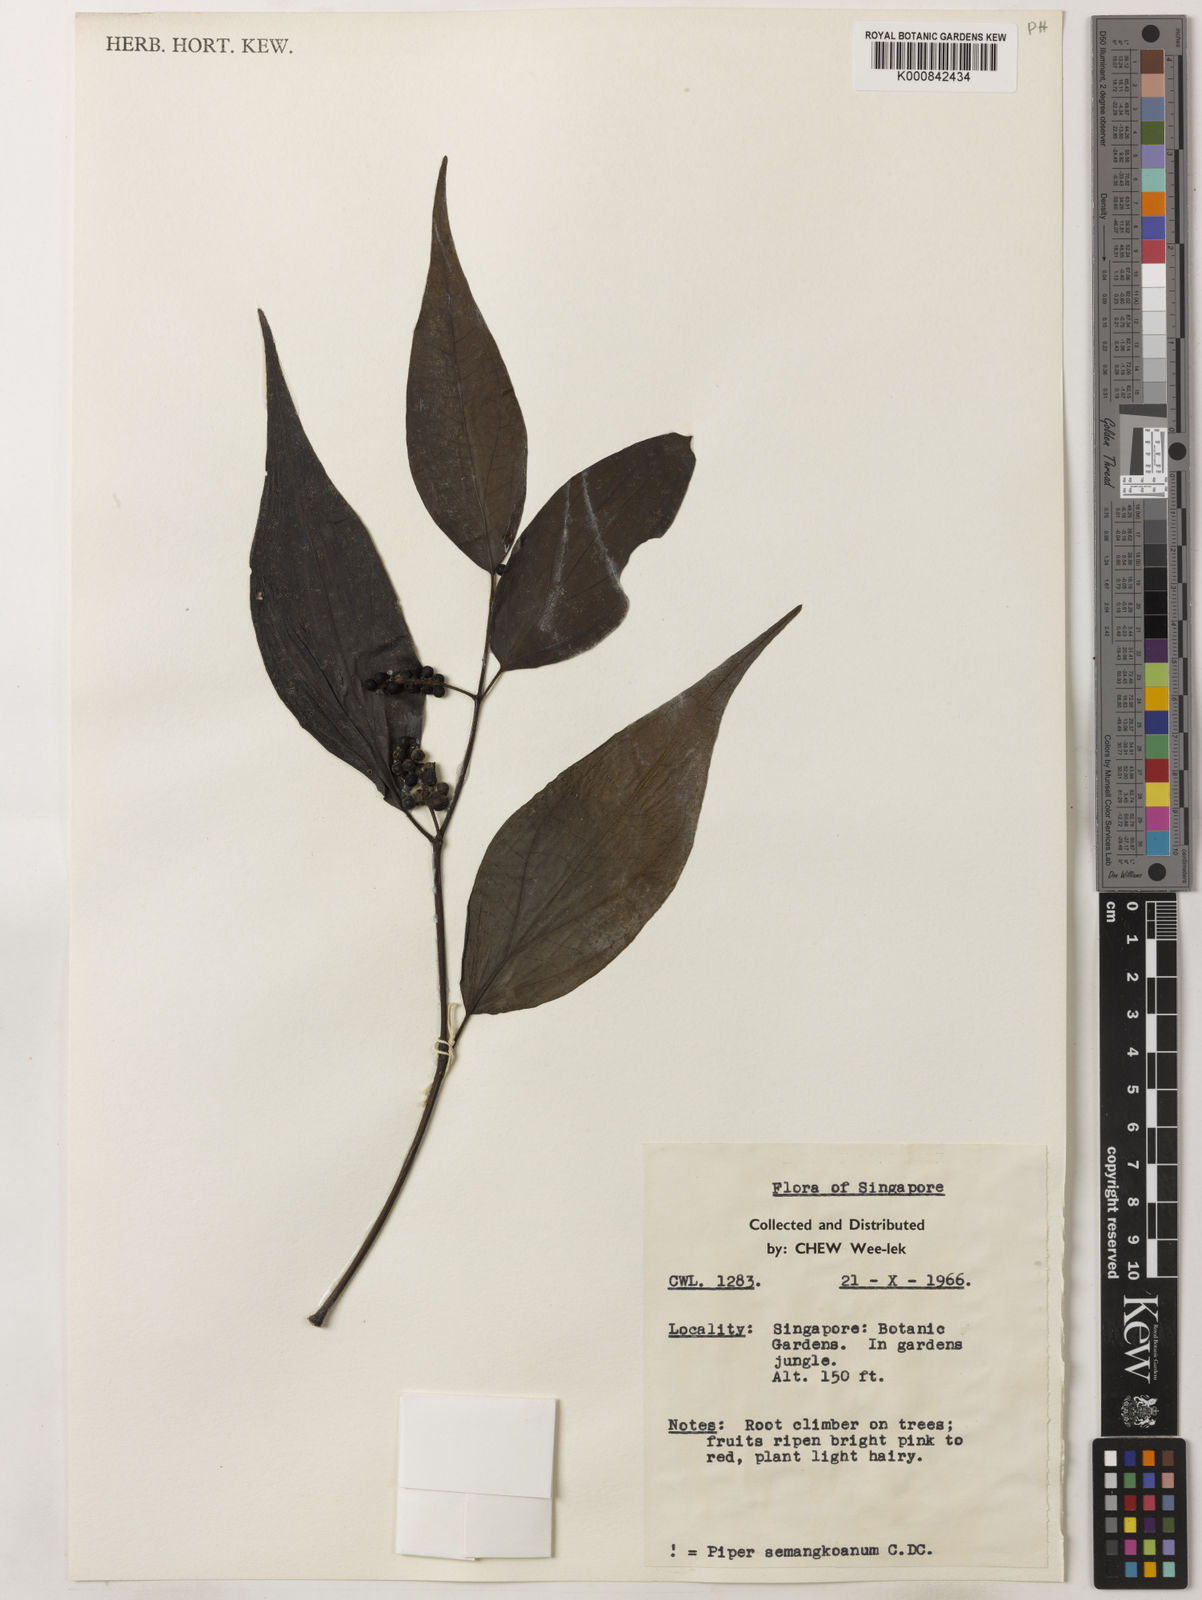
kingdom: Plantae
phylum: Tracheophyta
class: Magnoliopsida
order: Piperales
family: Piperaceae
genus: Piper
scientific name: Piper semangkoanum
